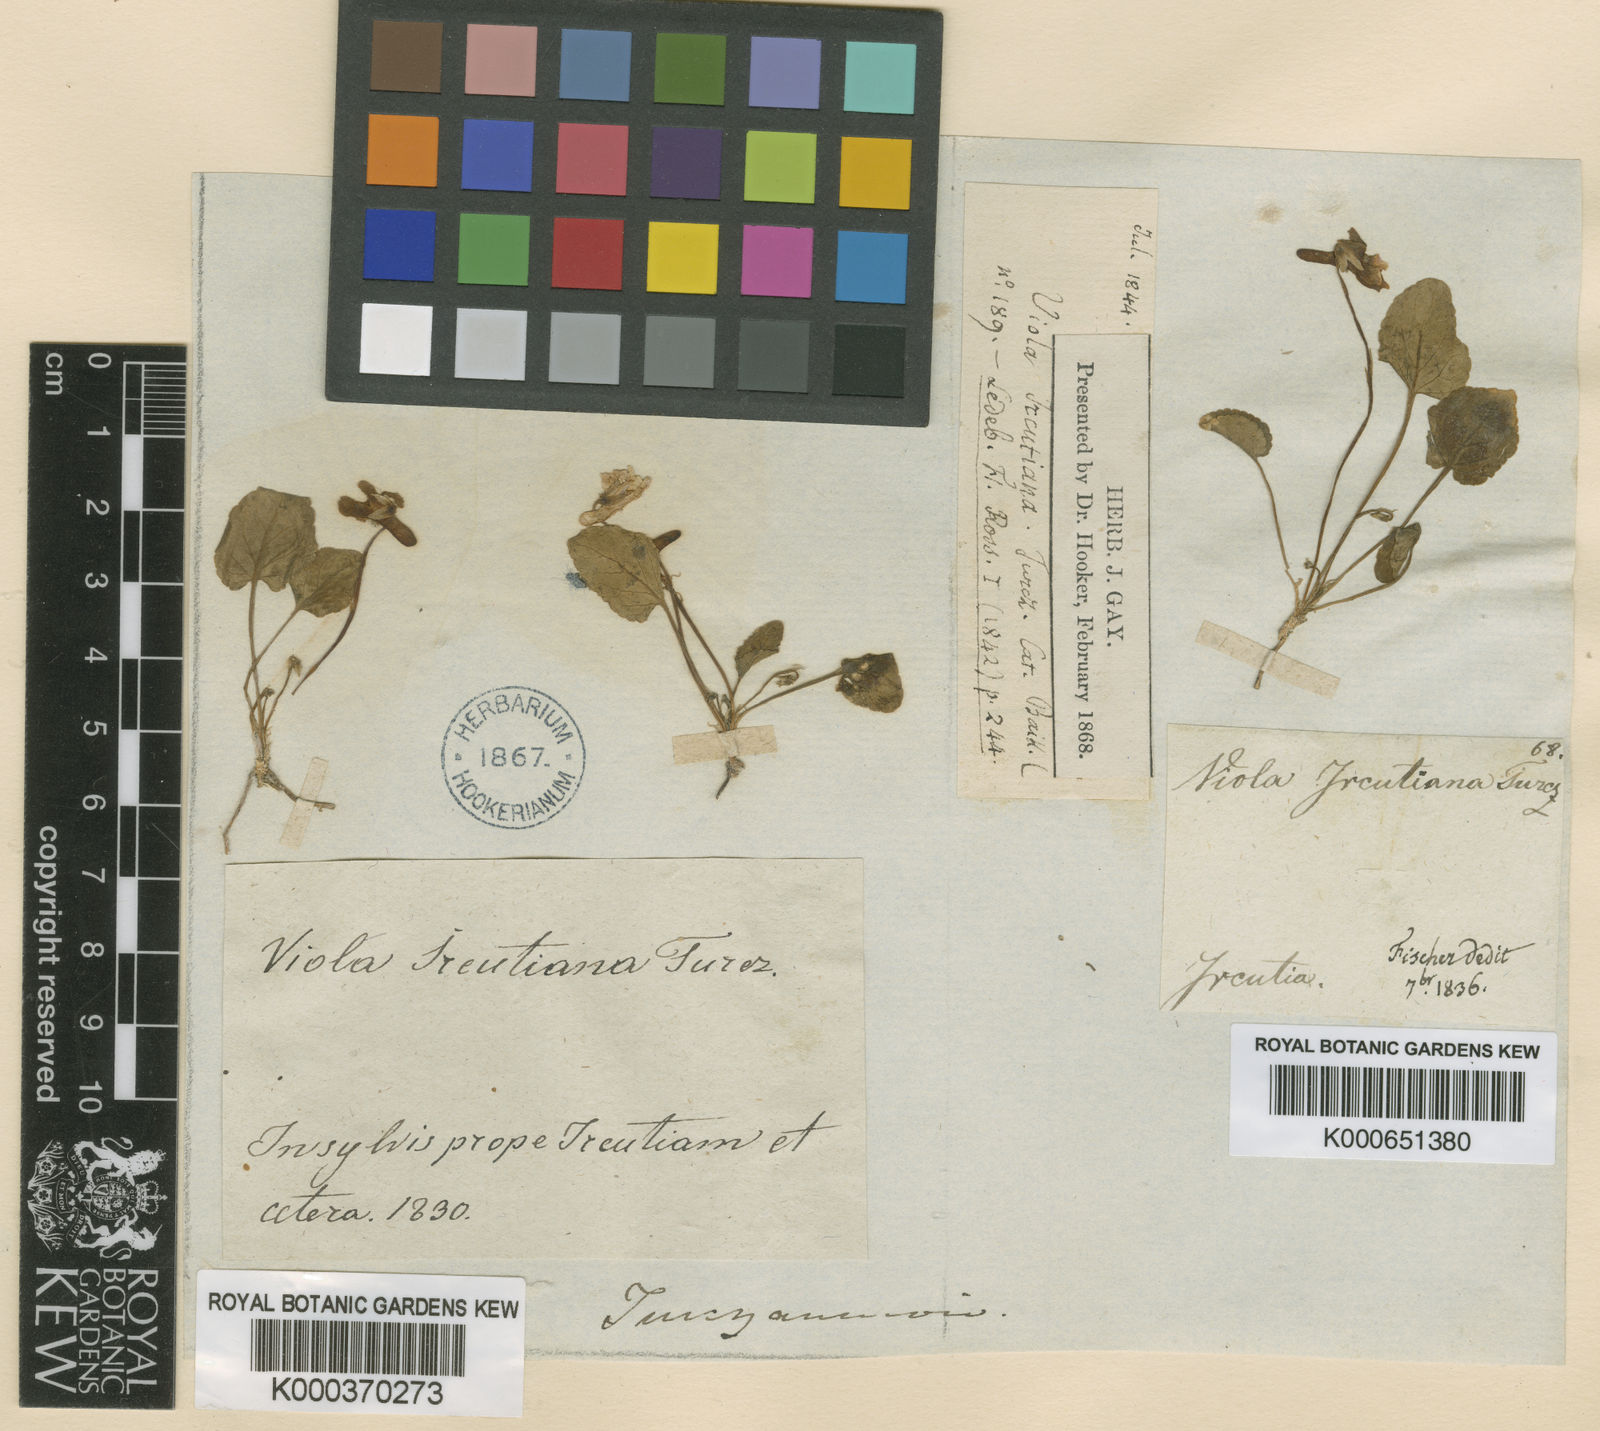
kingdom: Plantae
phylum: Tracheophyta
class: Magnoliopsida
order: Malpighiales
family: Violaceae
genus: Viola
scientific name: Viola variegata
